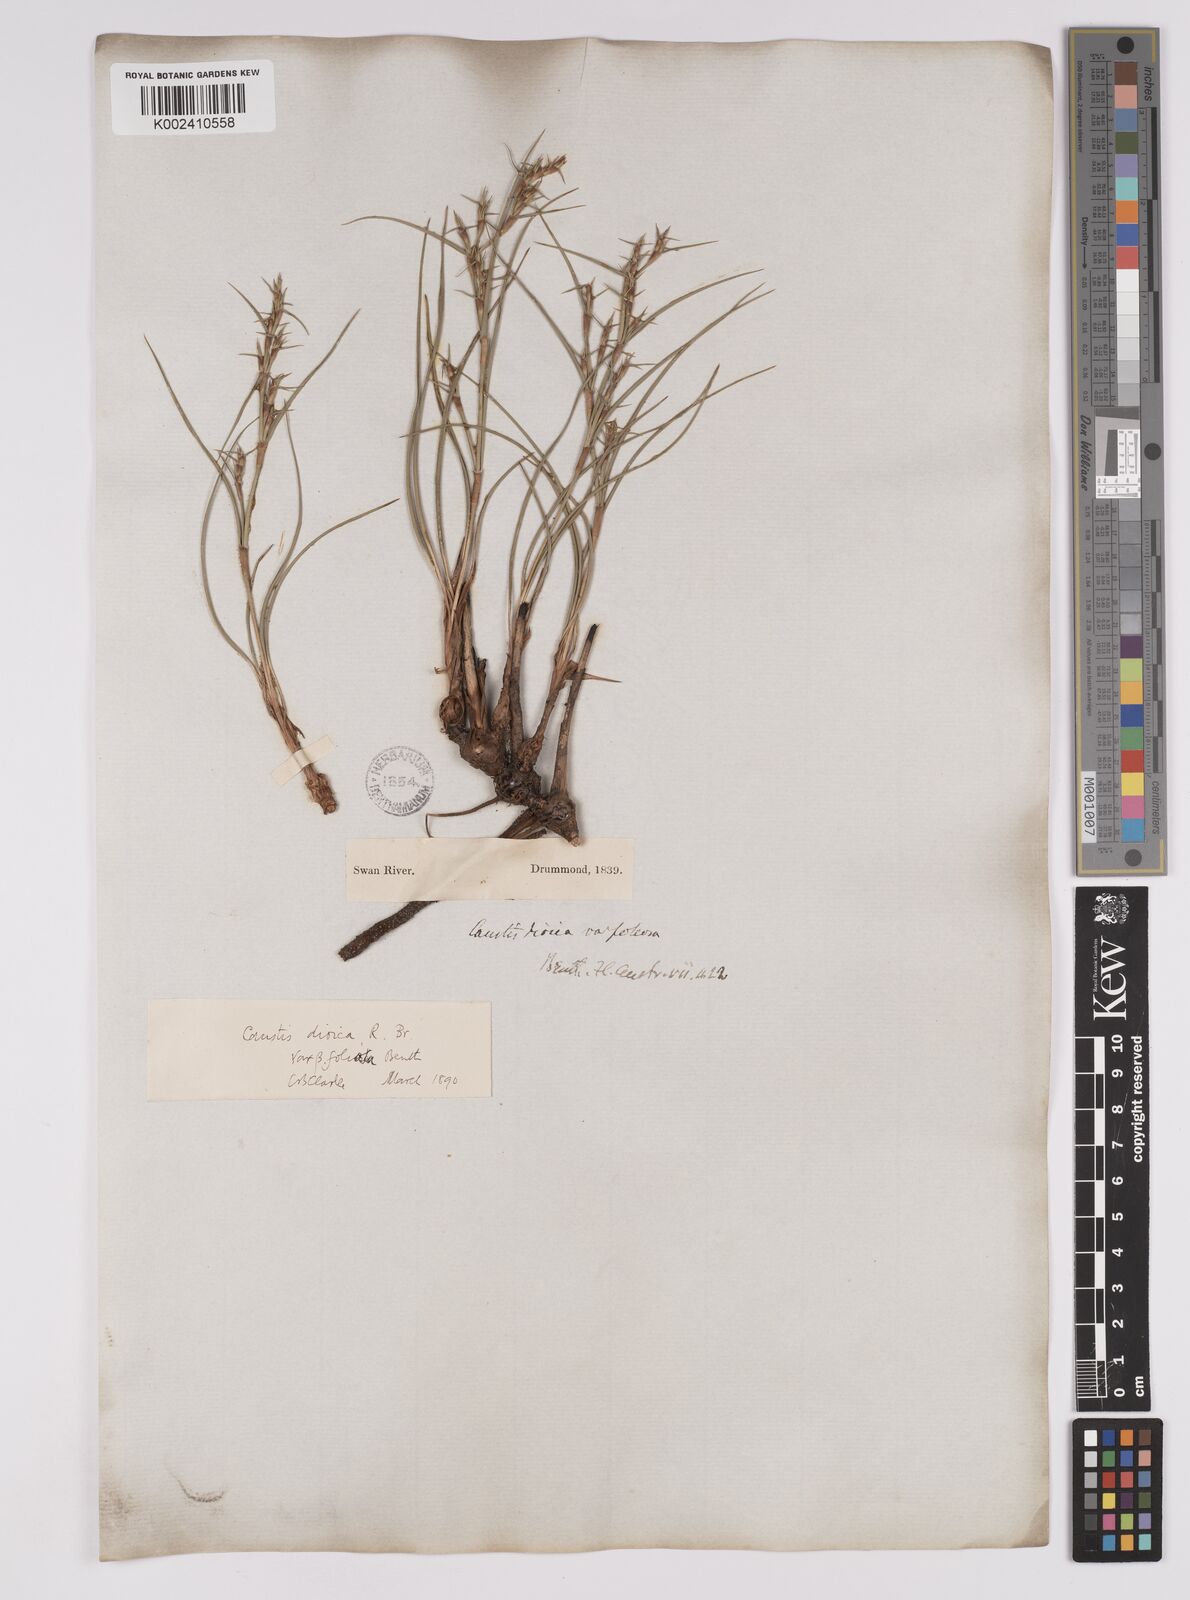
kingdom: Plantae
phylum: Tracheophyta
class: Liliopsida
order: Poales
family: Cyperaceae
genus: Caustis
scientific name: Caustis dioica
